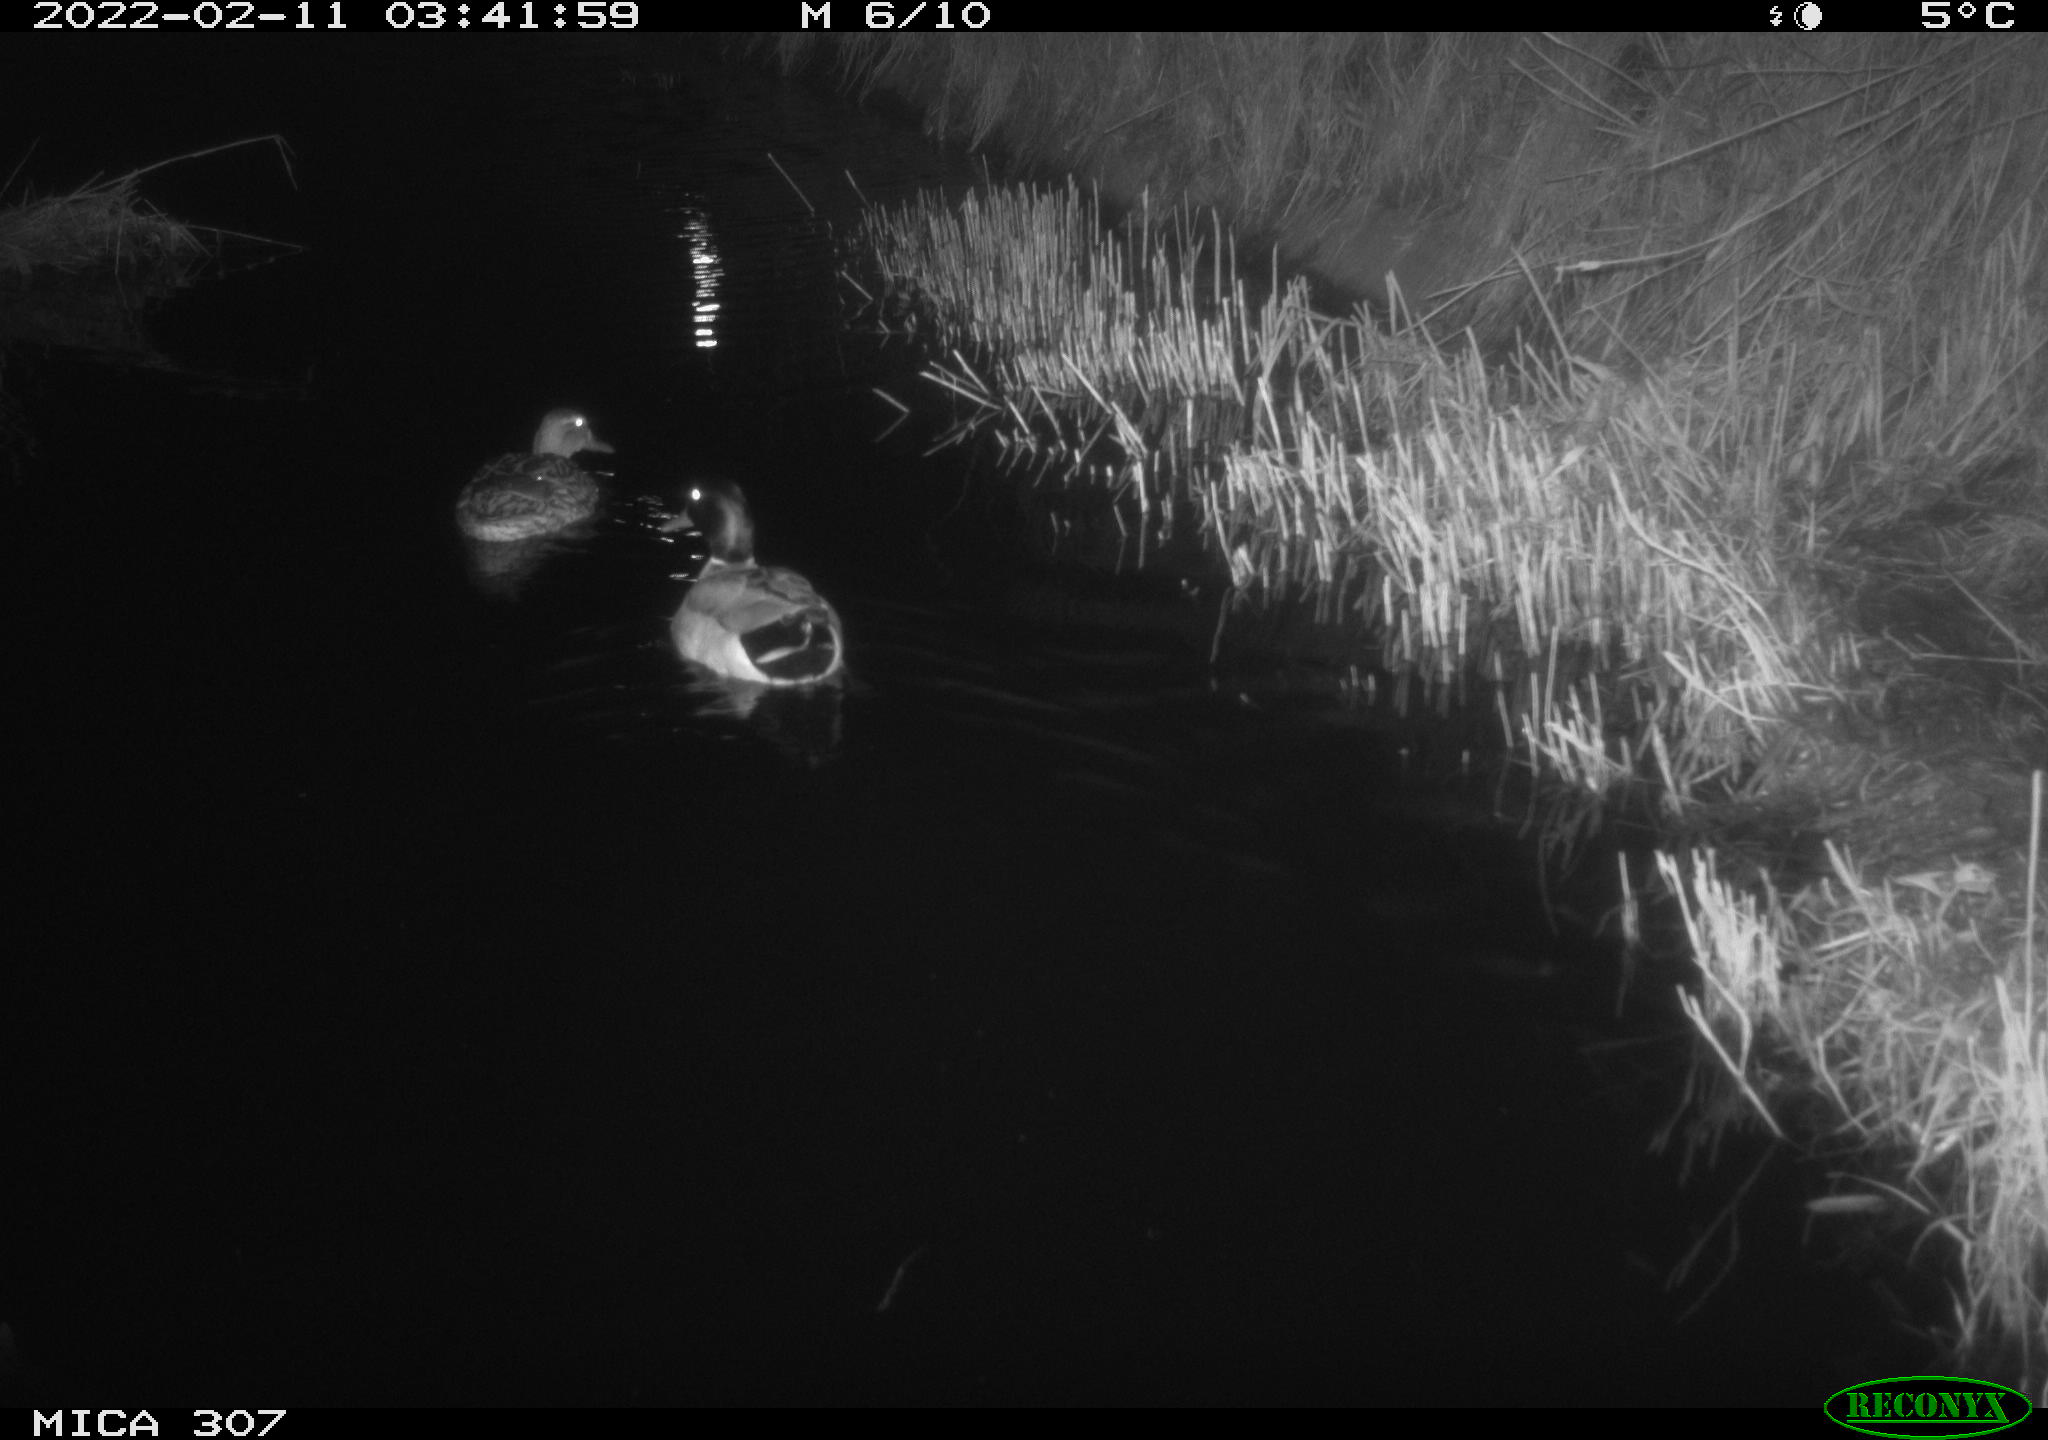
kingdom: Animalia
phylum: Chordata
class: Aves
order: Anseriformes
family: Anatidae
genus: Anas
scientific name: Anas platyrhynchos
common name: Mallard
